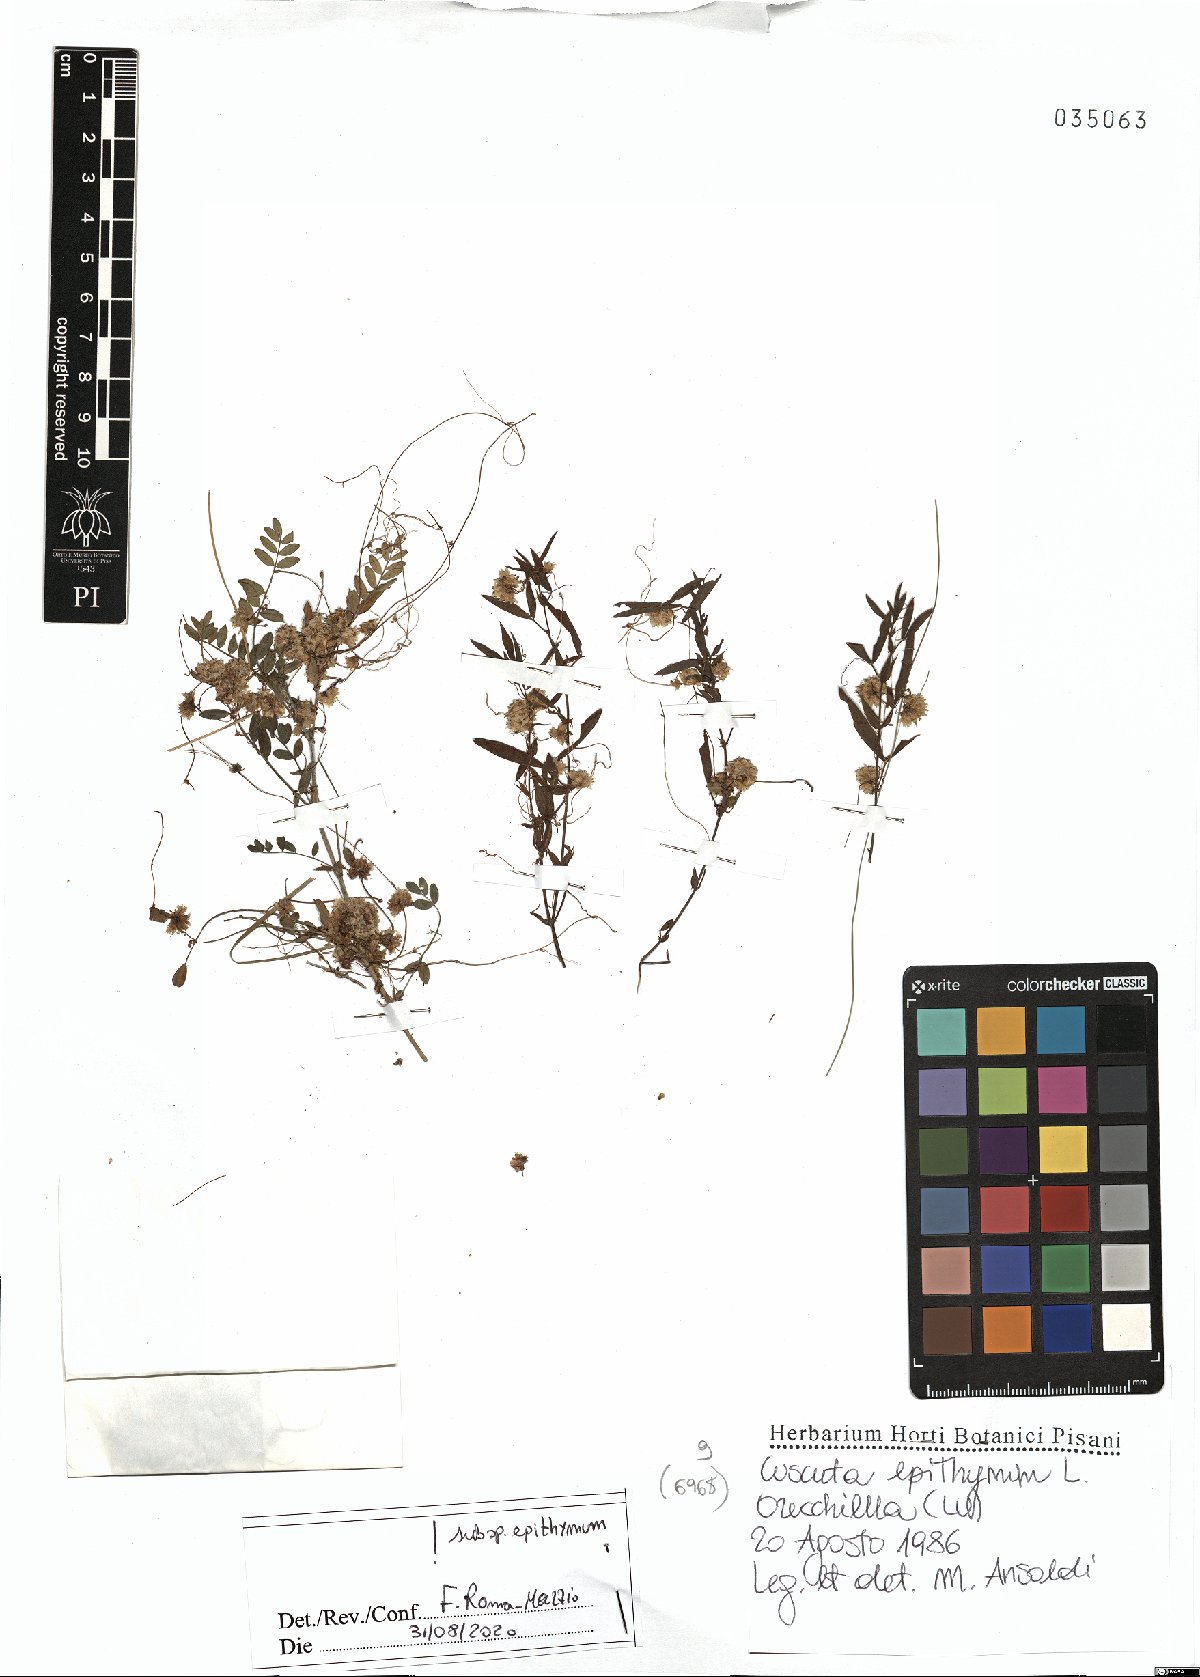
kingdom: Plantae
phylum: Tracheophyta
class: Magnoliopsida
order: Solanales
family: Convolvulaceae
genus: Cuscuta
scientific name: Cuscuta epithymum
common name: Clover dodder
